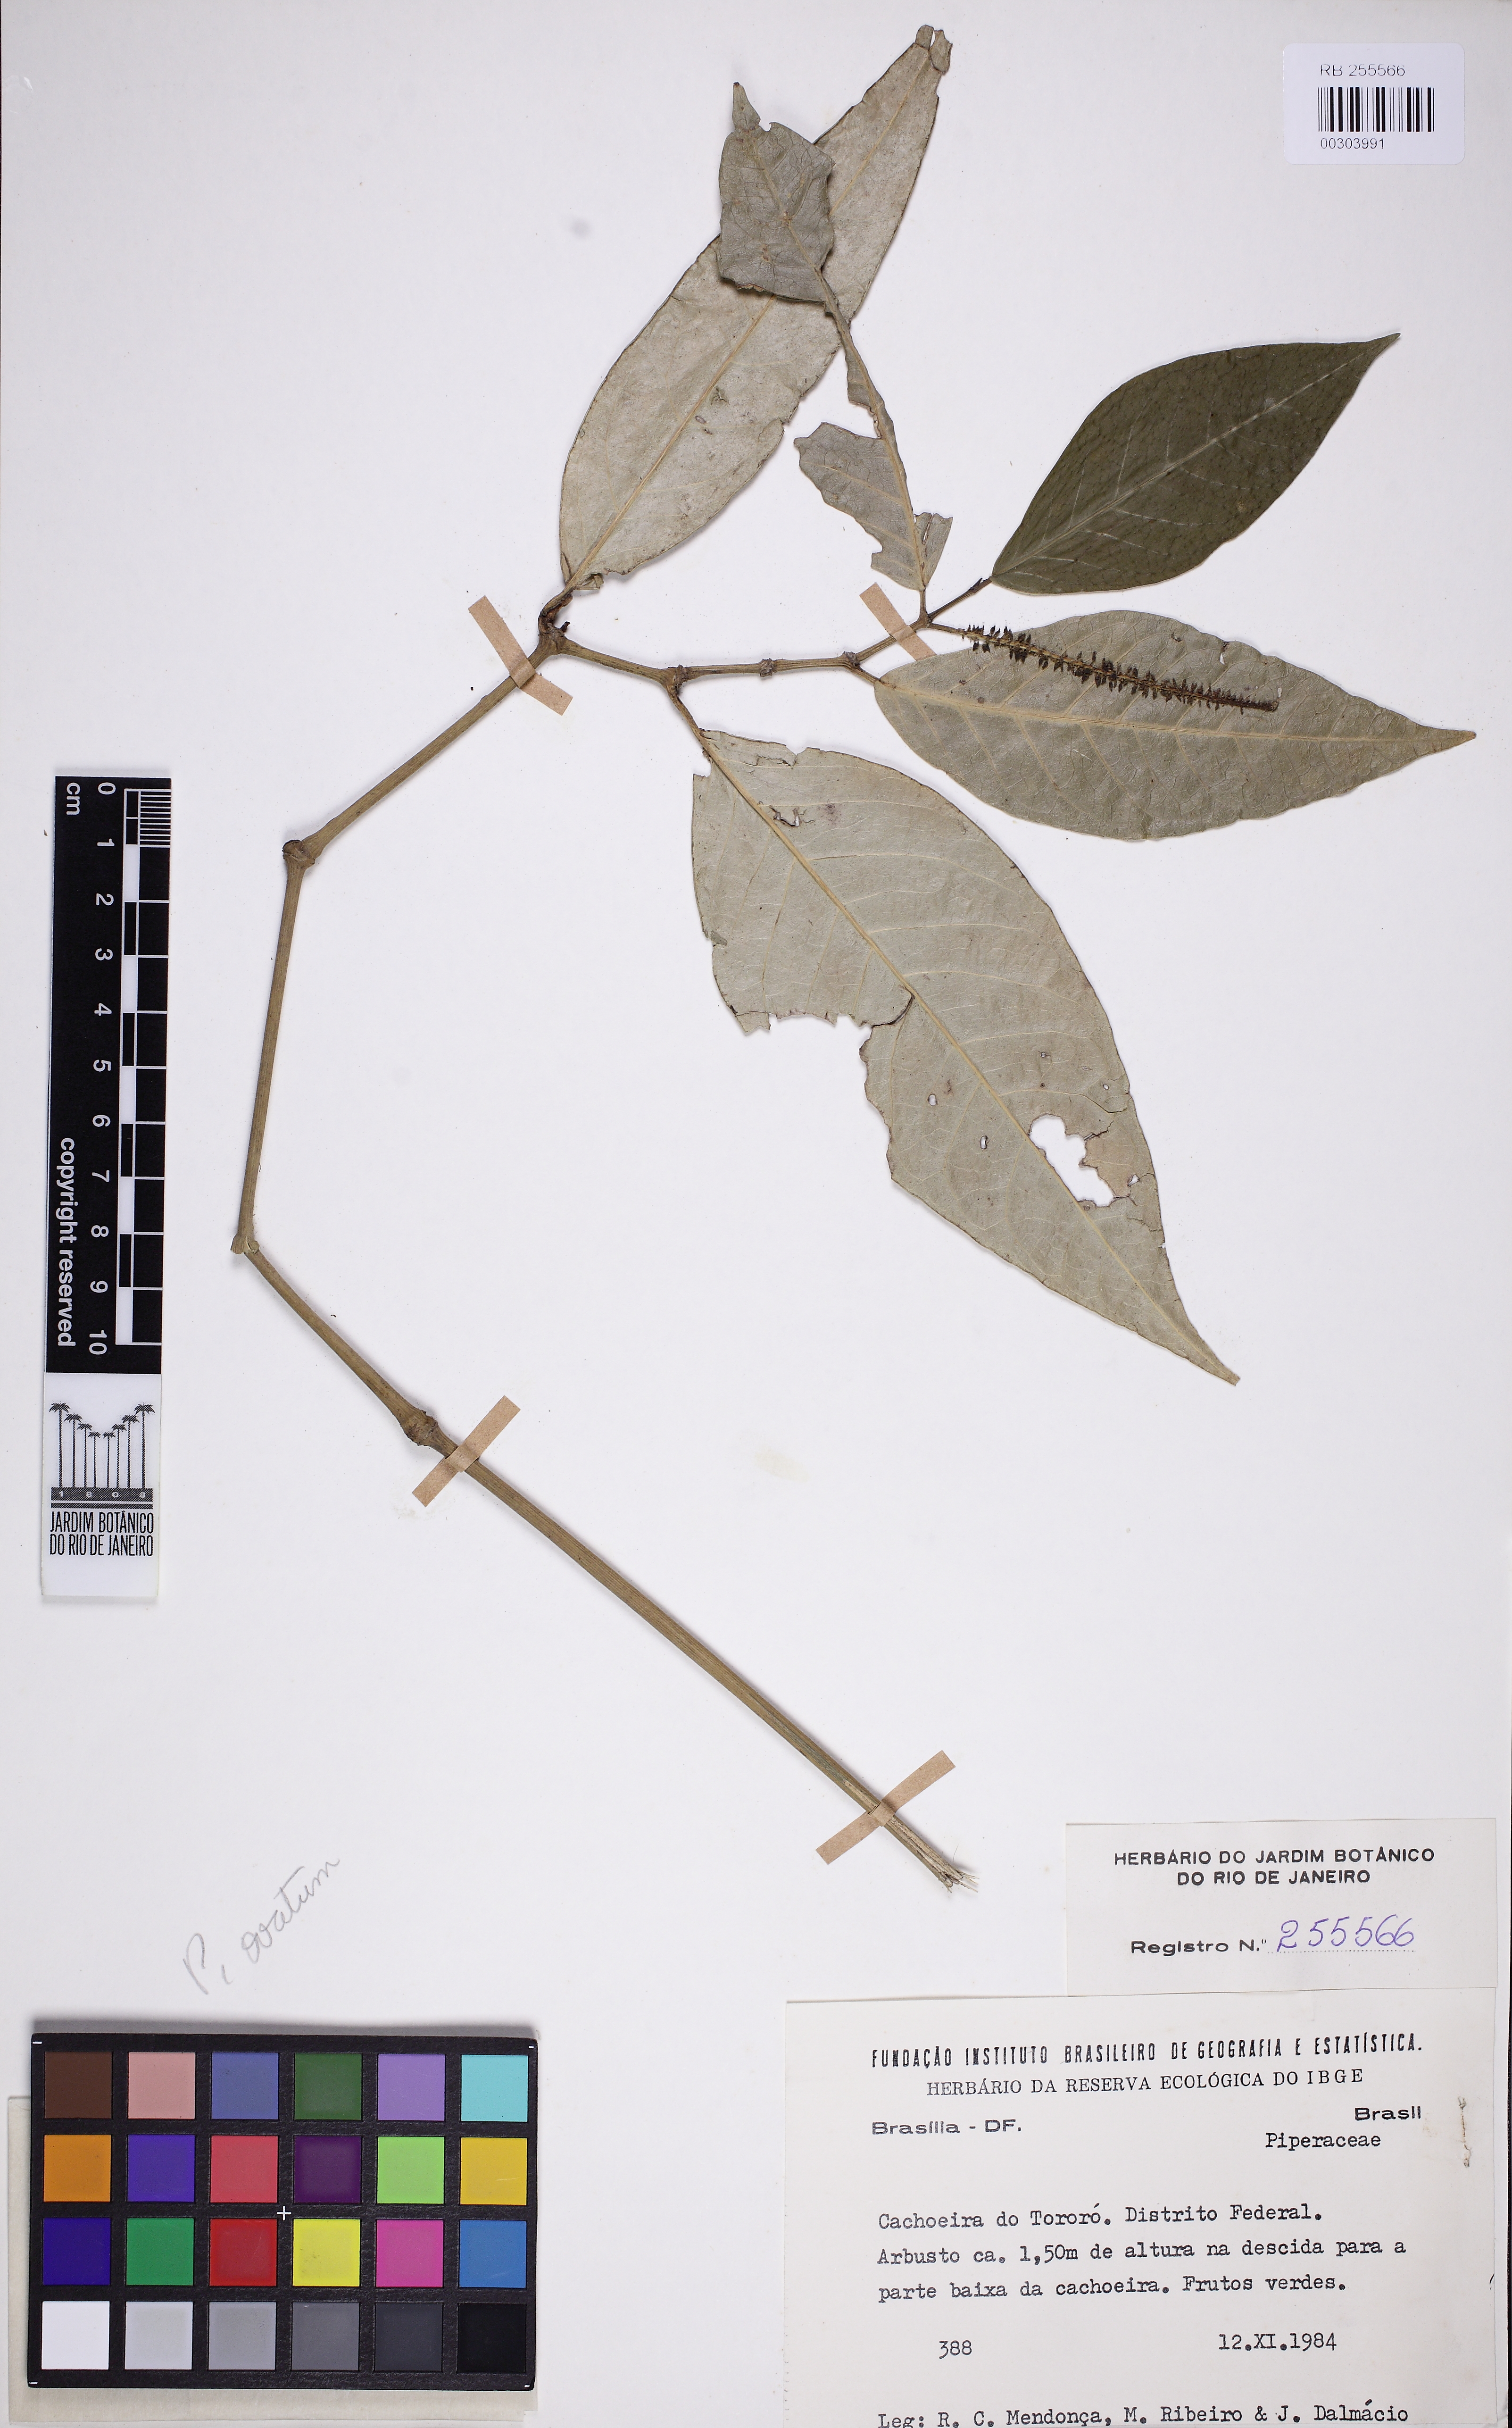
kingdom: Plantae
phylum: Tracheophyta
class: Magnoliopsida
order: Piperales
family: Piperaceae
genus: Piper
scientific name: Piper ovatum
